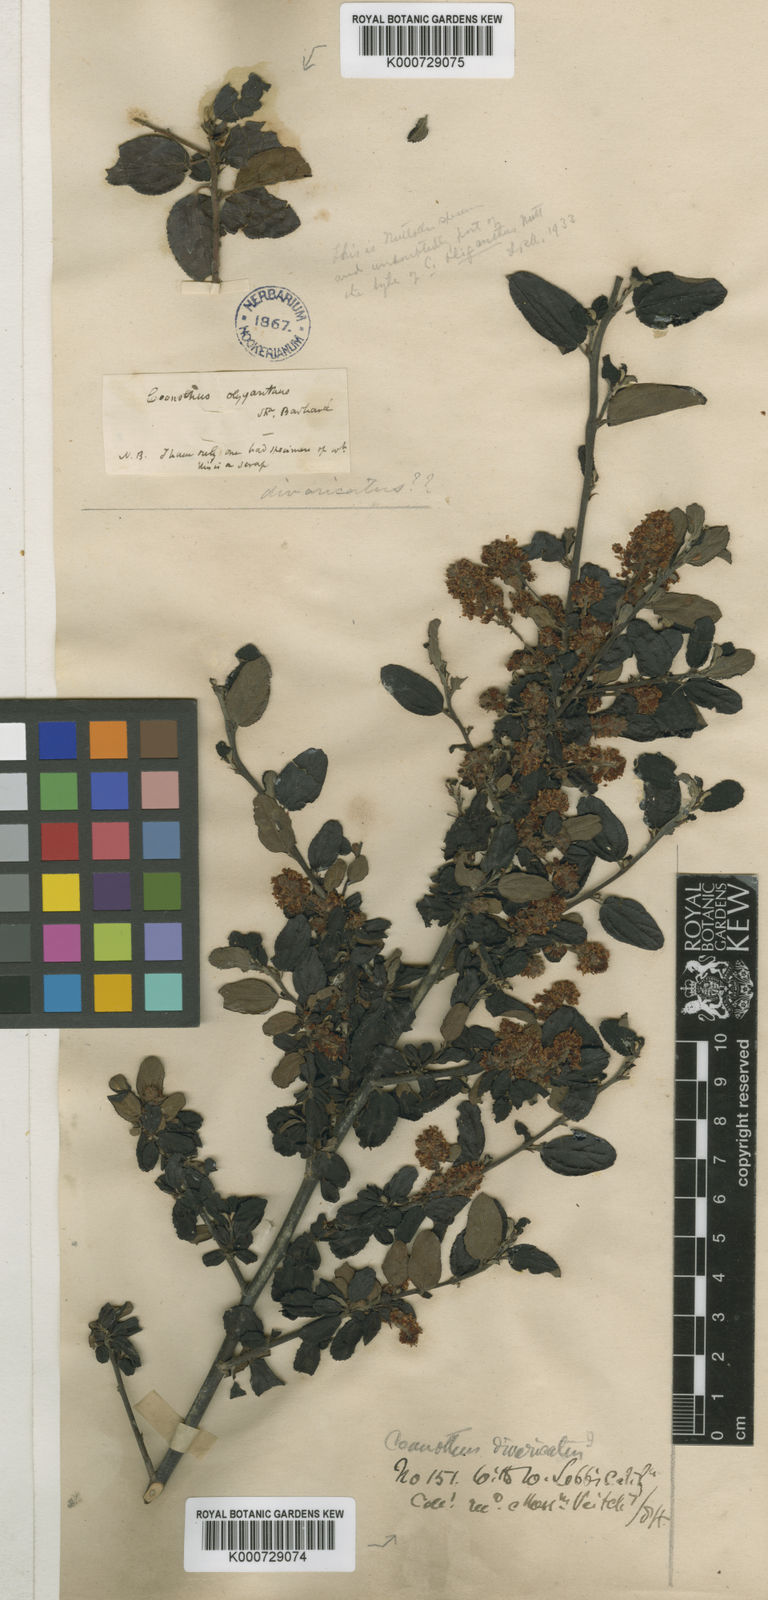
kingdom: Plantae
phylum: Tracheophyta
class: Magnoliopsida
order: Rosales
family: Rhamnaceae
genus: Ceanothus
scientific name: Ceanothus oliganthus
